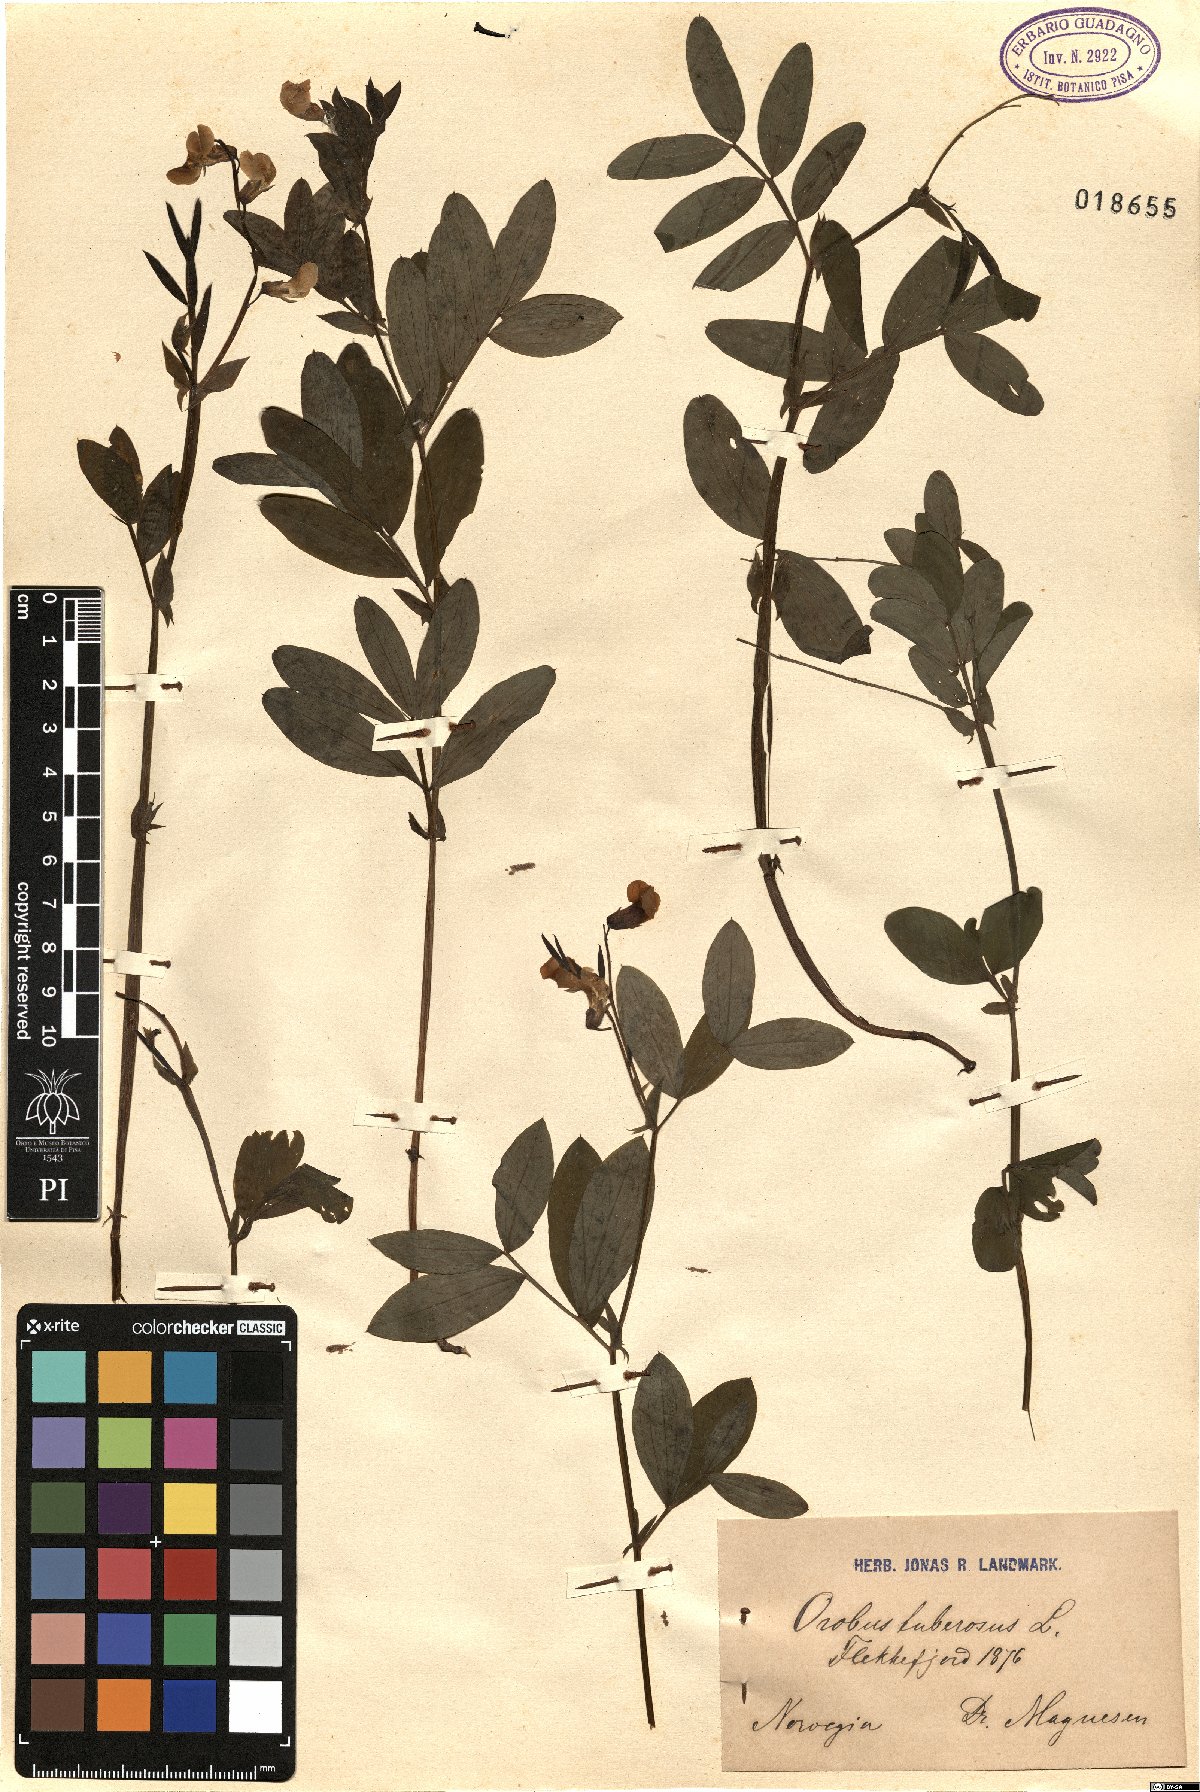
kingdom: Plantae
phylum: Tracheophyta
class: Magnoliopsida
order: Fabales
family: Fabaceae
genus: Lathyrus
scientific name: Lathyrus linifolius
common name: Bitter-vetch
